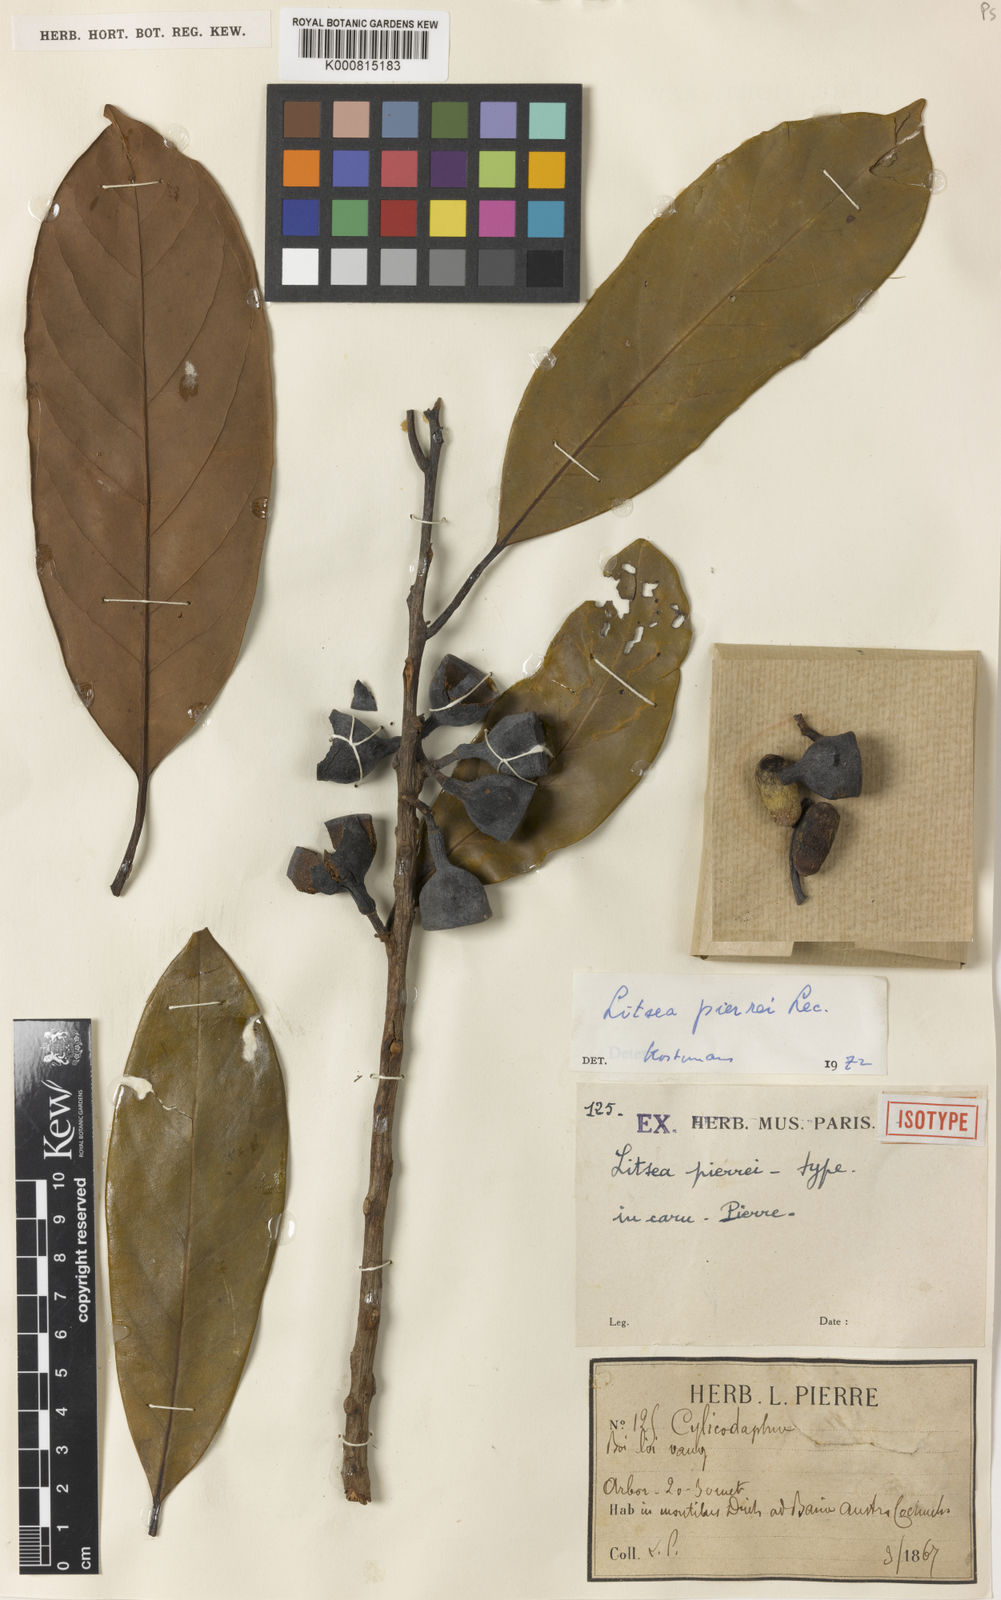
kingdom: Plantae
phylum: Tracheophyta
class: Magnoliopsida
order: Laurales
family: Lauraceae
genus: Litsea
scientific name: Litsea cambodiana
